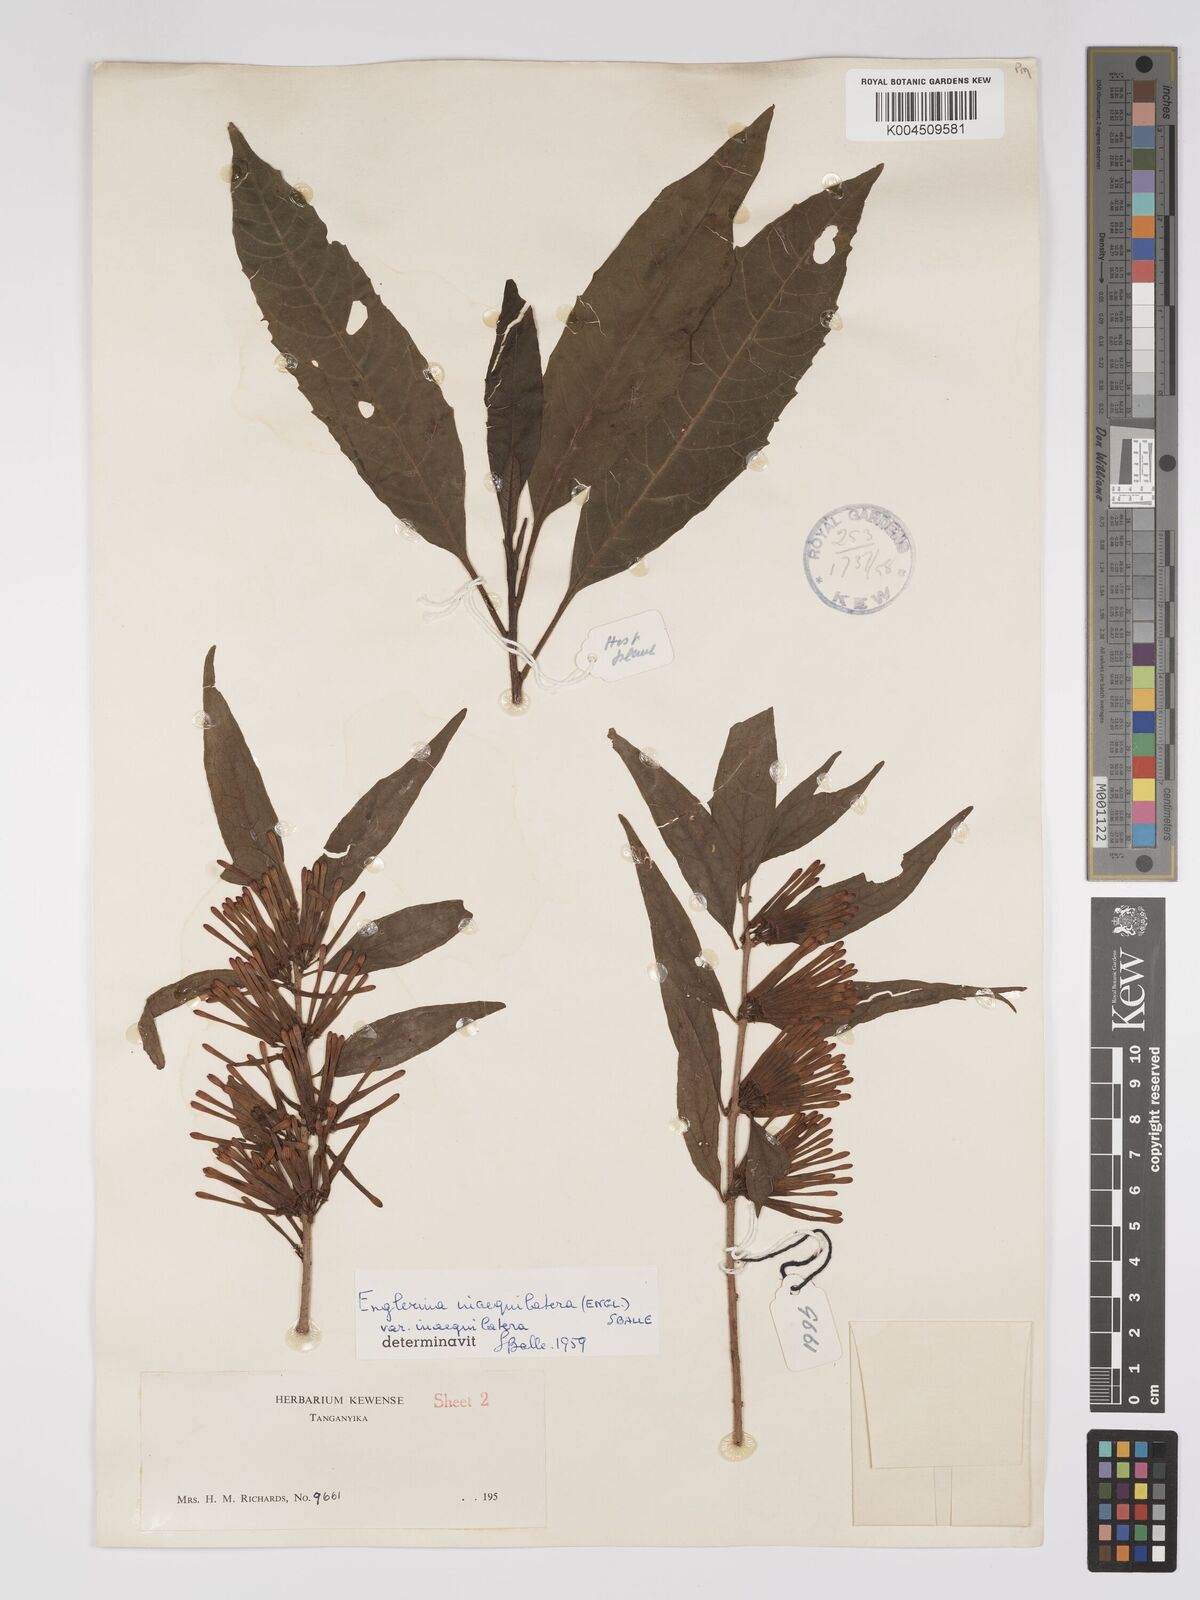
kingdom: Plantae
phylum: Tracheophyta
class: Magnoliopsida
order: Santalales
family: Loranthaceae
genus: Englerina
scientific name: Englerina inaequilatera
